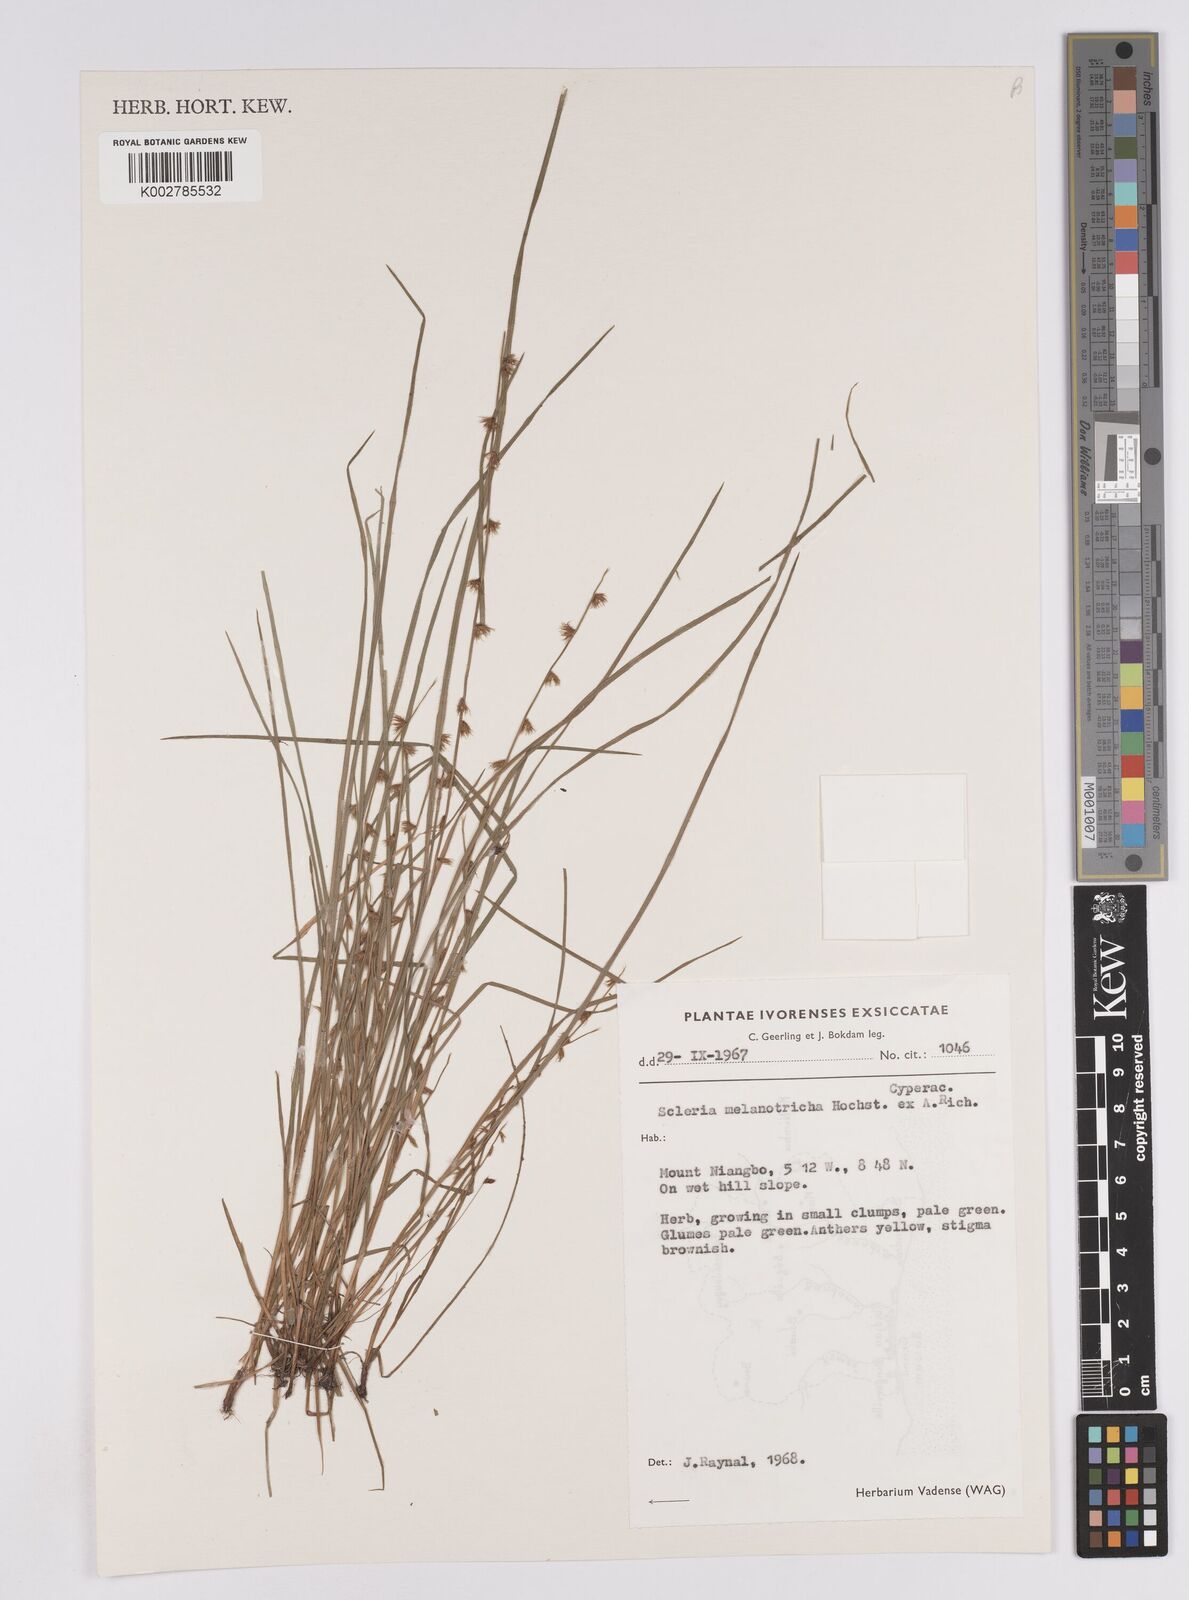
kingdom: Plantae
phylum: Tracheophyta
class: Liliopsida
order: Poales
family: Cyperaceae
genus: Scleria
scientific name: Scleria melanotricha
